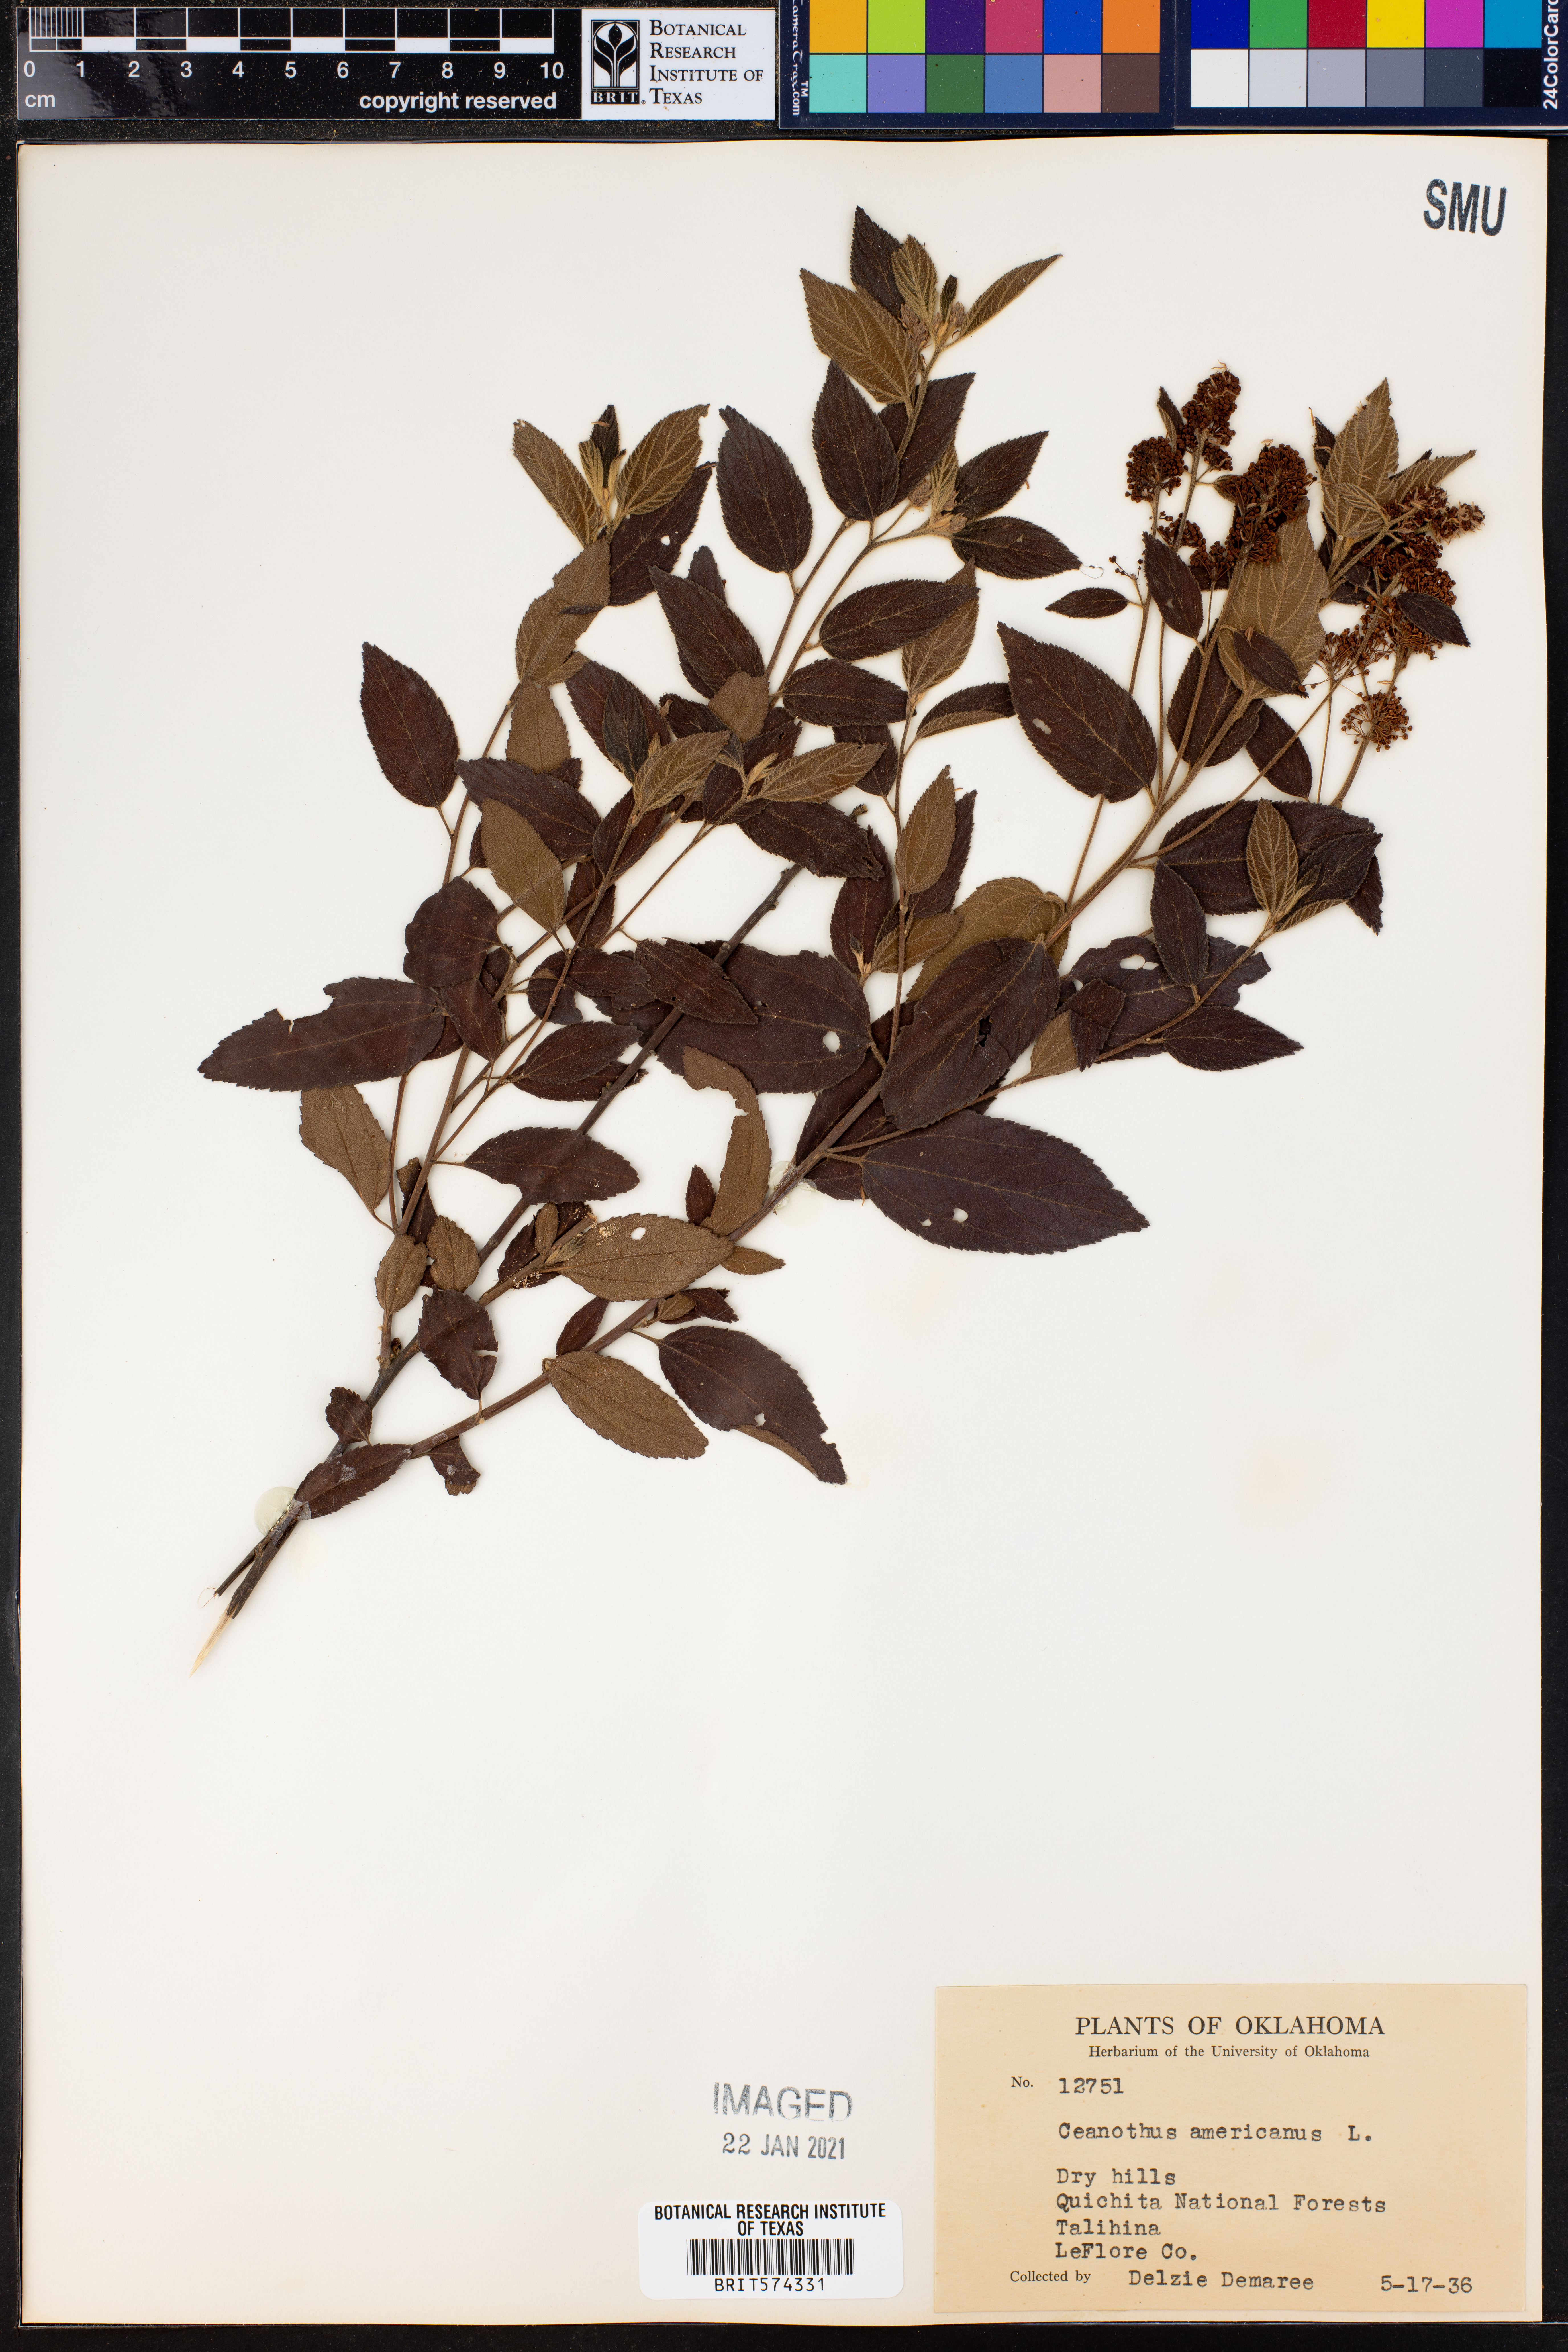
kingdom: Plantae
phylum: Tracheophyta
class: Magnoliopsida
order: Rosales
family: Rhamnaceae
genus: Ceanothus
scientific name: Ceanothus americanus
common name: Redroot
